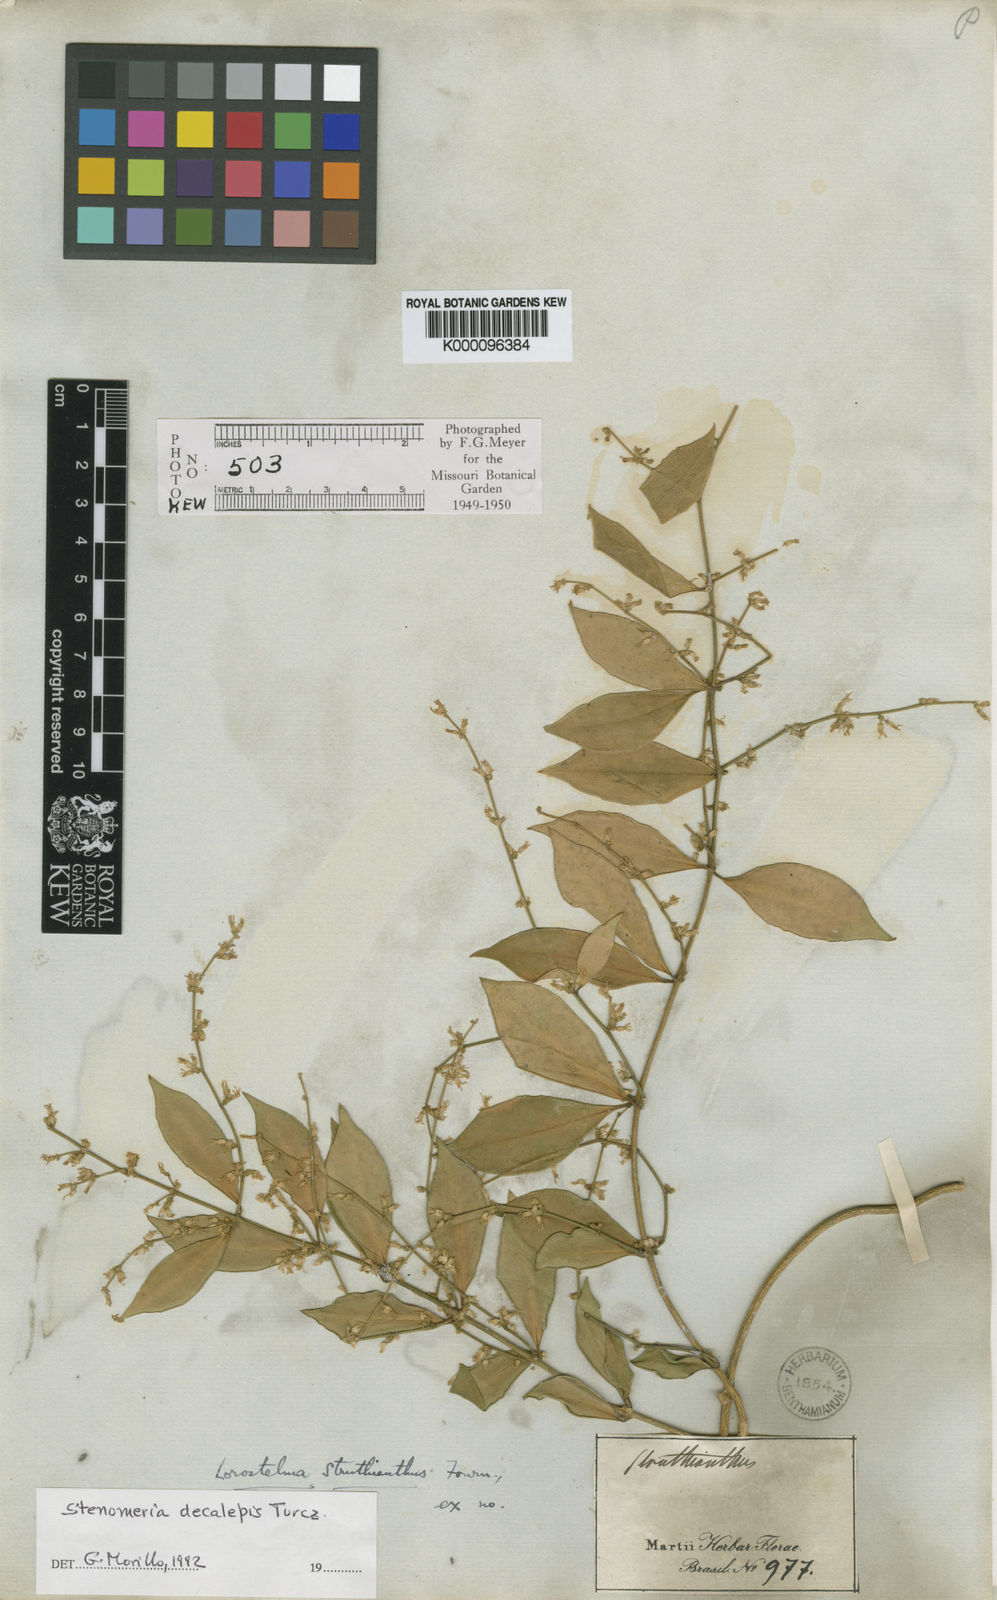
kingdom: Plantae
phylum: Tracheophyta
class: Magnoliopsida
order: Gentianales
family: Apocynaceae
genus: Tassadia
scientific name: Tassadia decalepis
